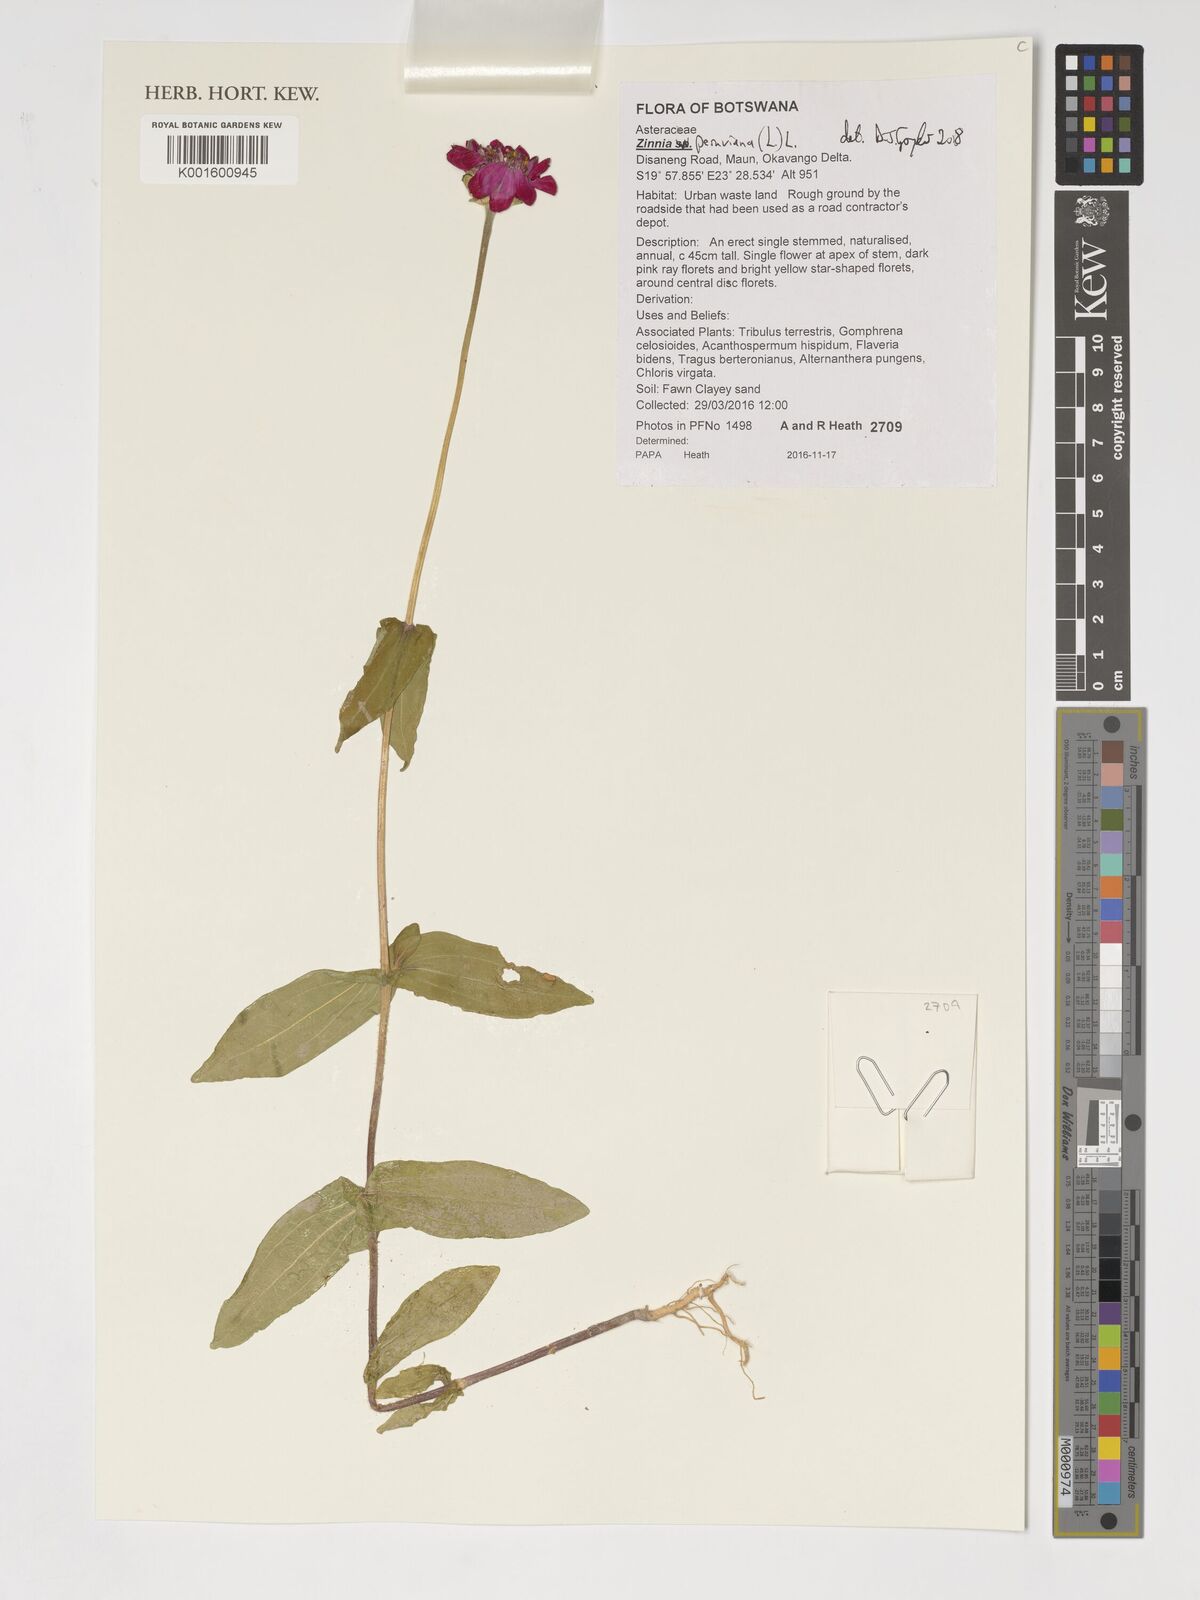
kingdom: Plantae
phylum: Tracheophyta
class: Magnoliopsida
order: Asterales
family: Asteraceae
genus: Zinnia
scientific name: Zinnia peruviana
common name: Peruvian zinnia
